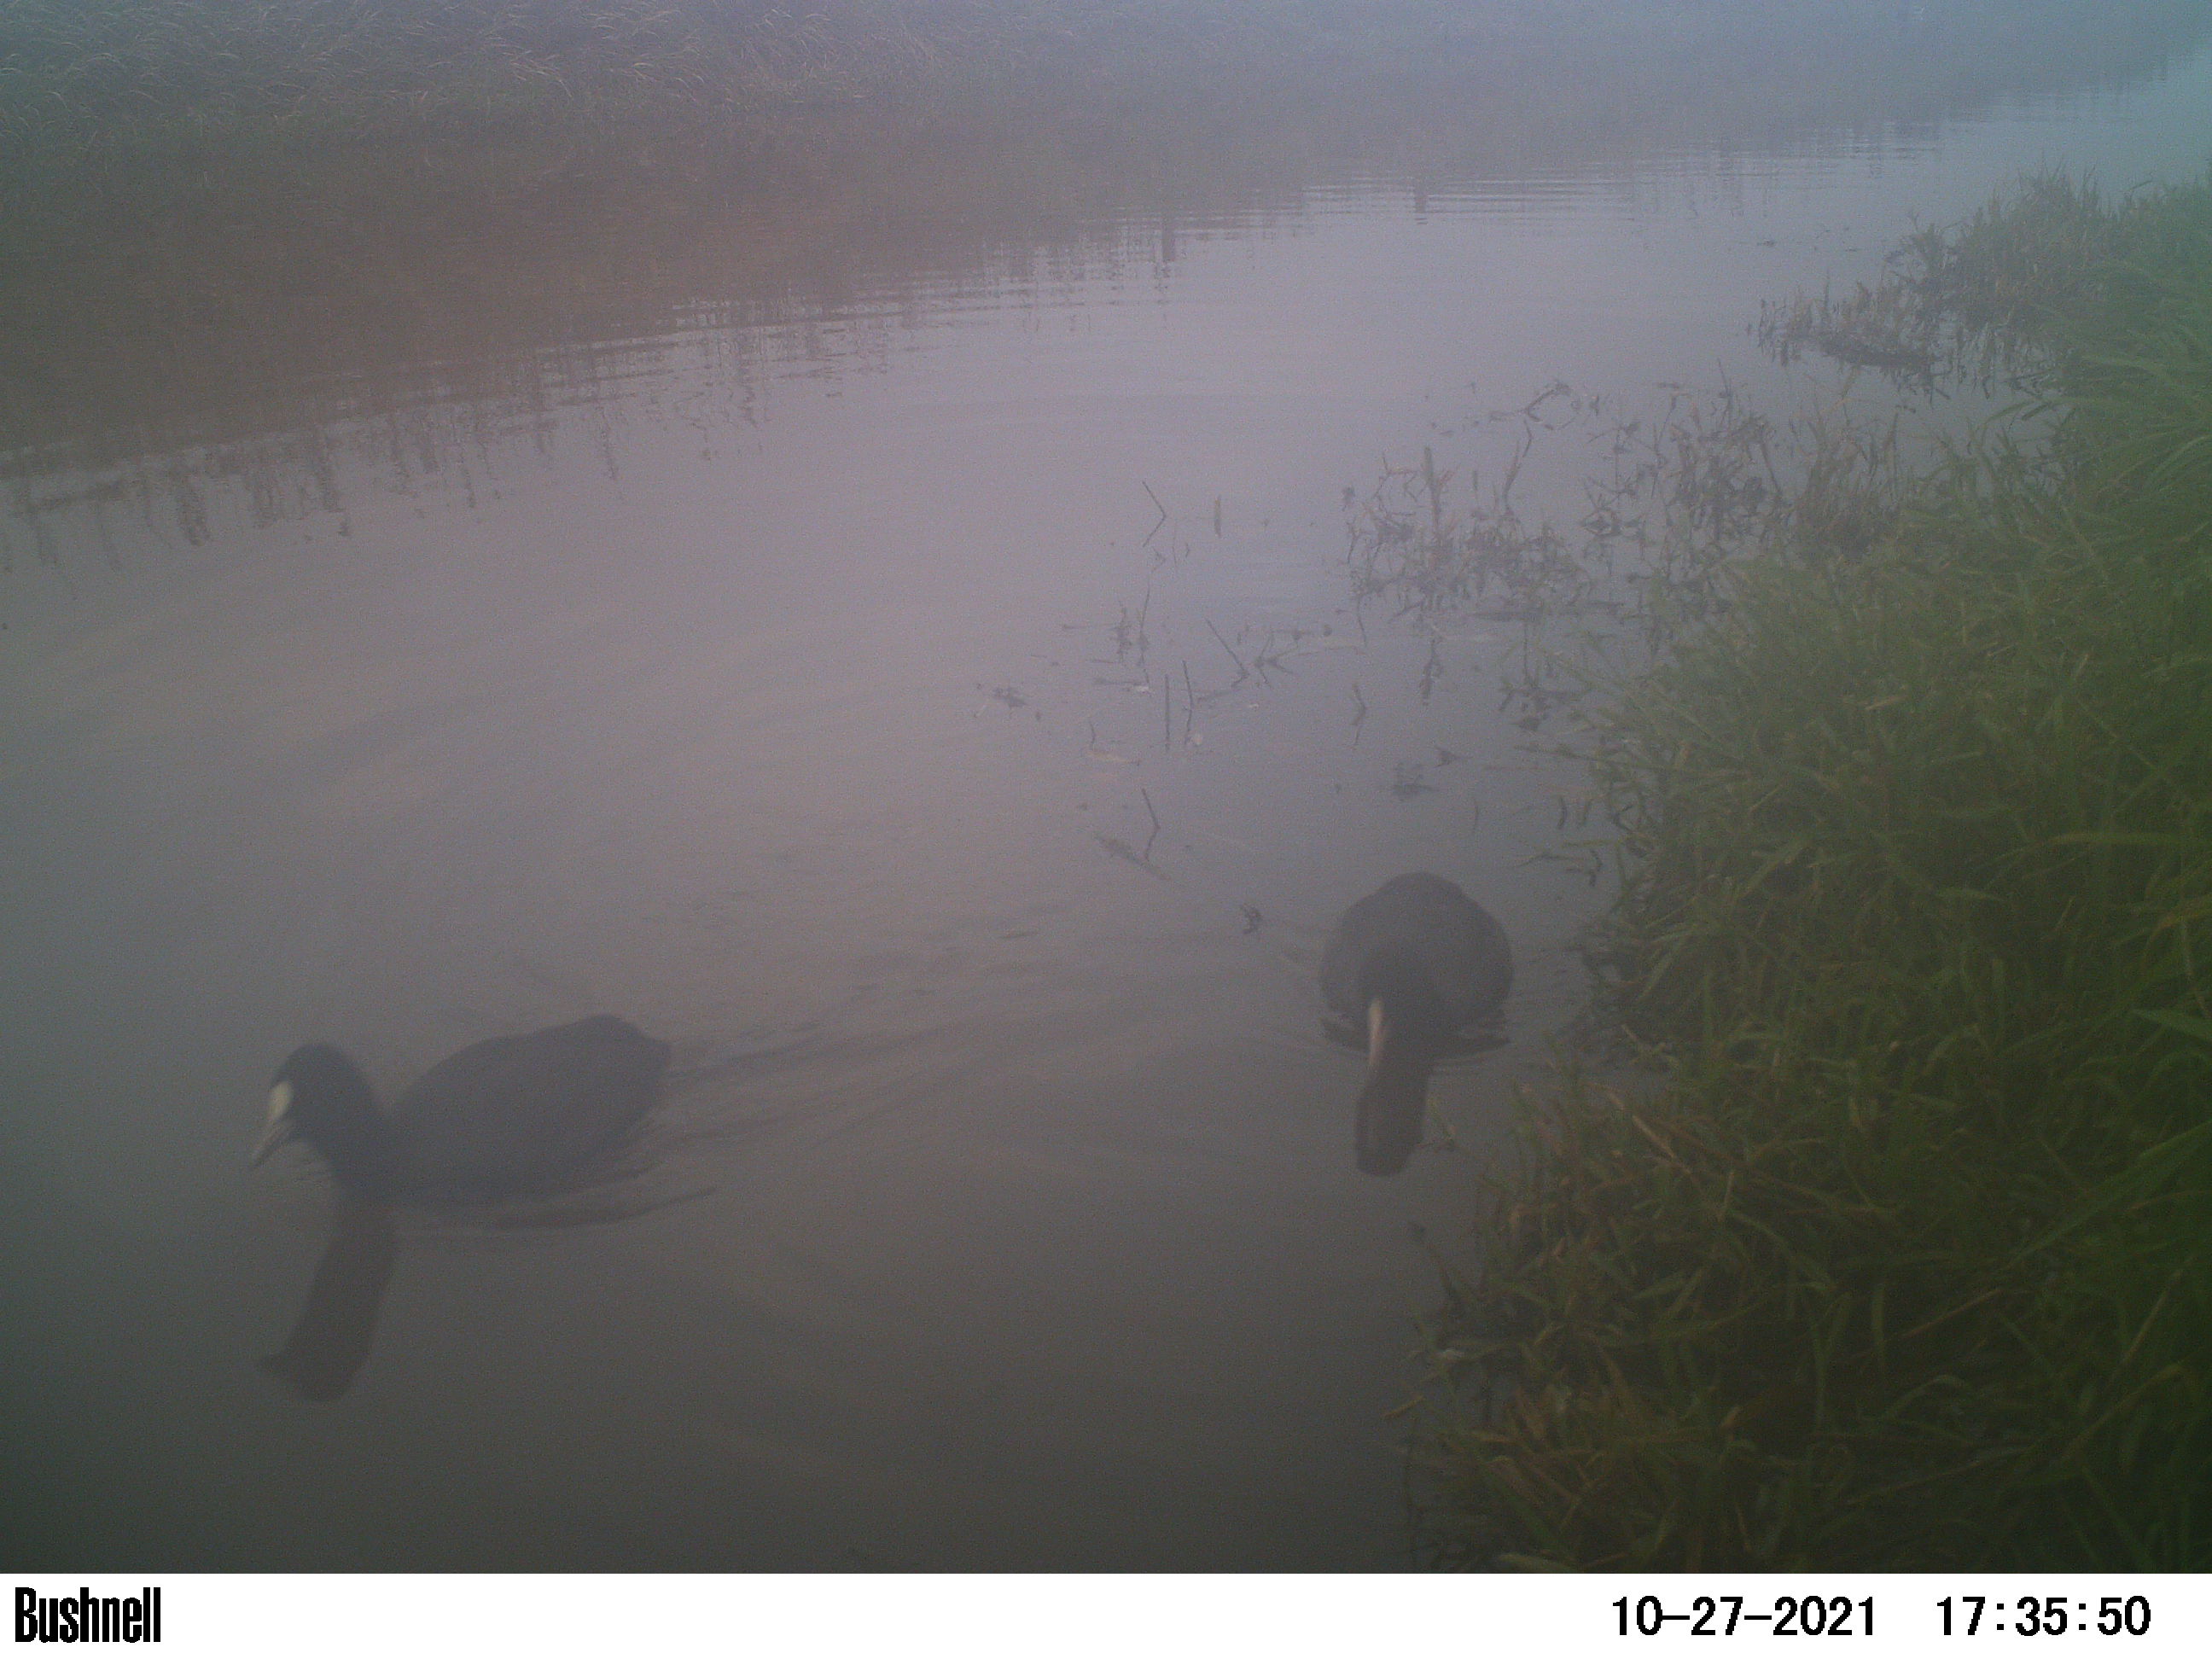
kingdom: Animalia
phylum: Chordata
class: Aves
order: Gruiformes
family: Rallidae
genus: Fulica
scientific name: Fulica atra
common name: Eurasian coot
